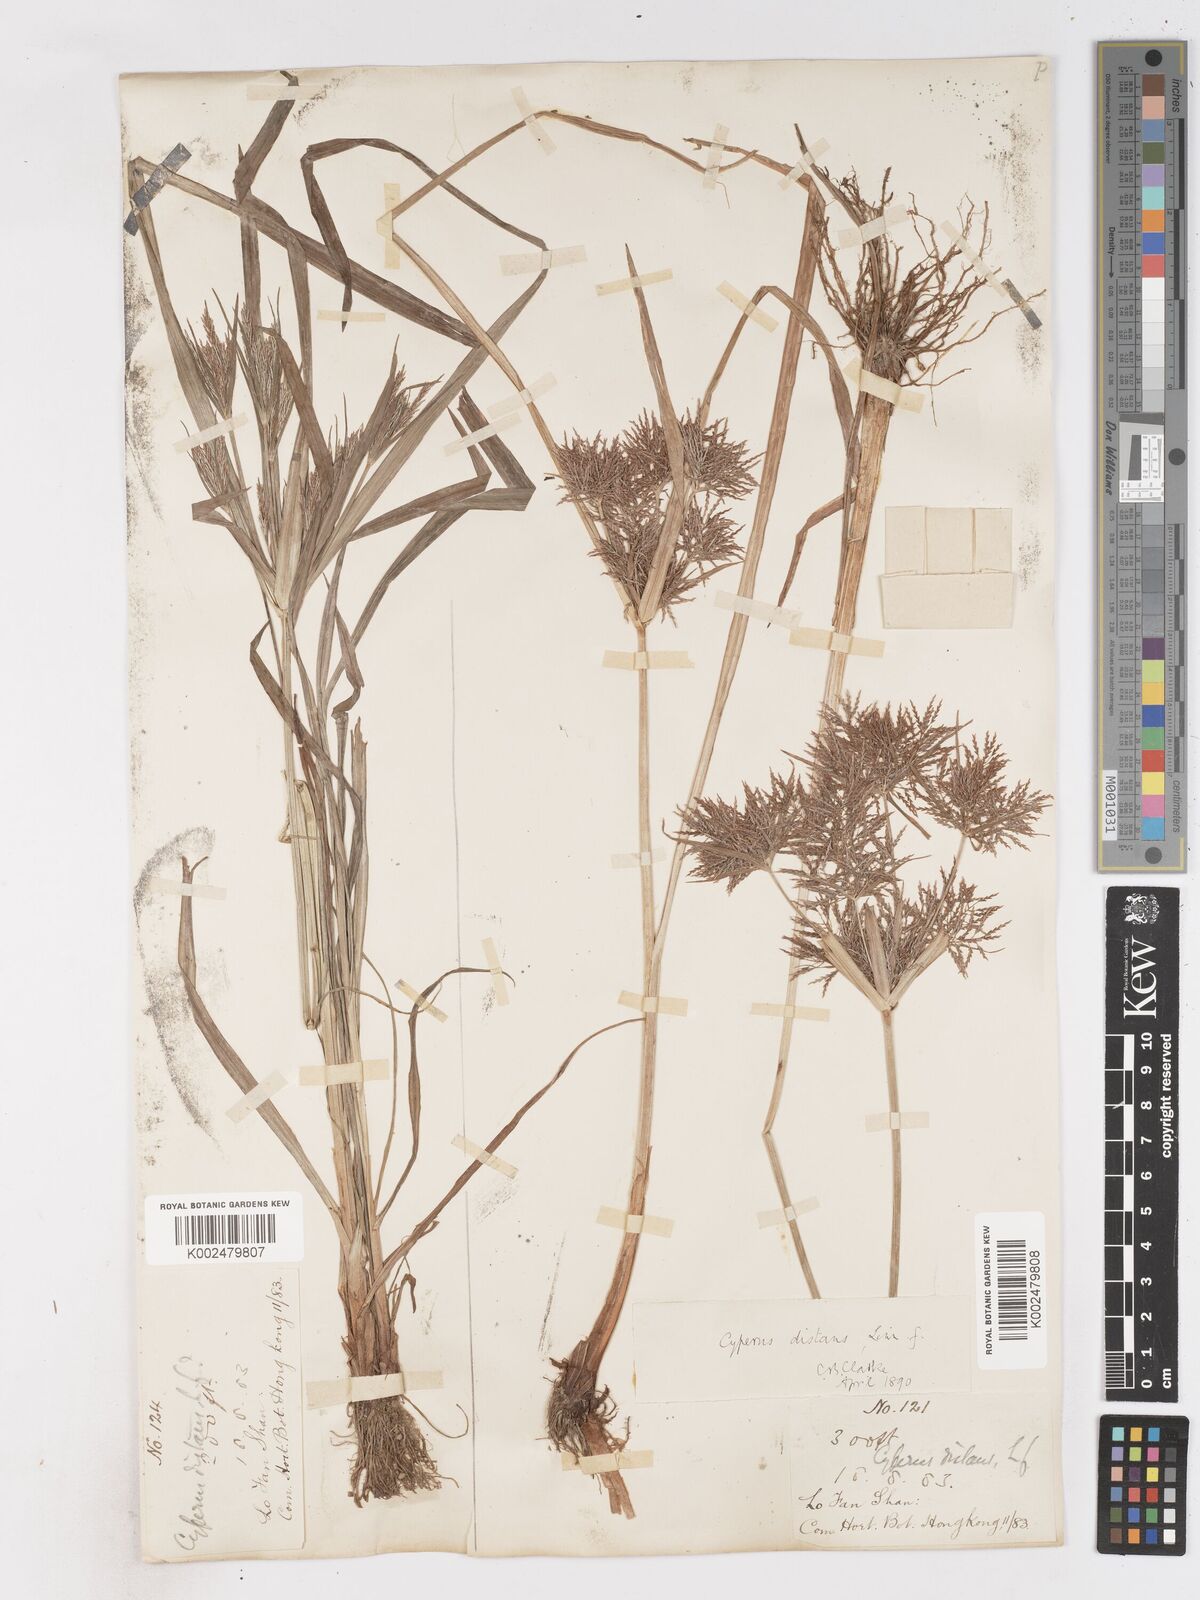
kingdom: Plantae
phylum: Tracheophyta
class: Liliopsida
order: Poales
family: Cyperaceae
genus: Cyperus
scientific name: Cyperus distans
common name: Slender cyperus
